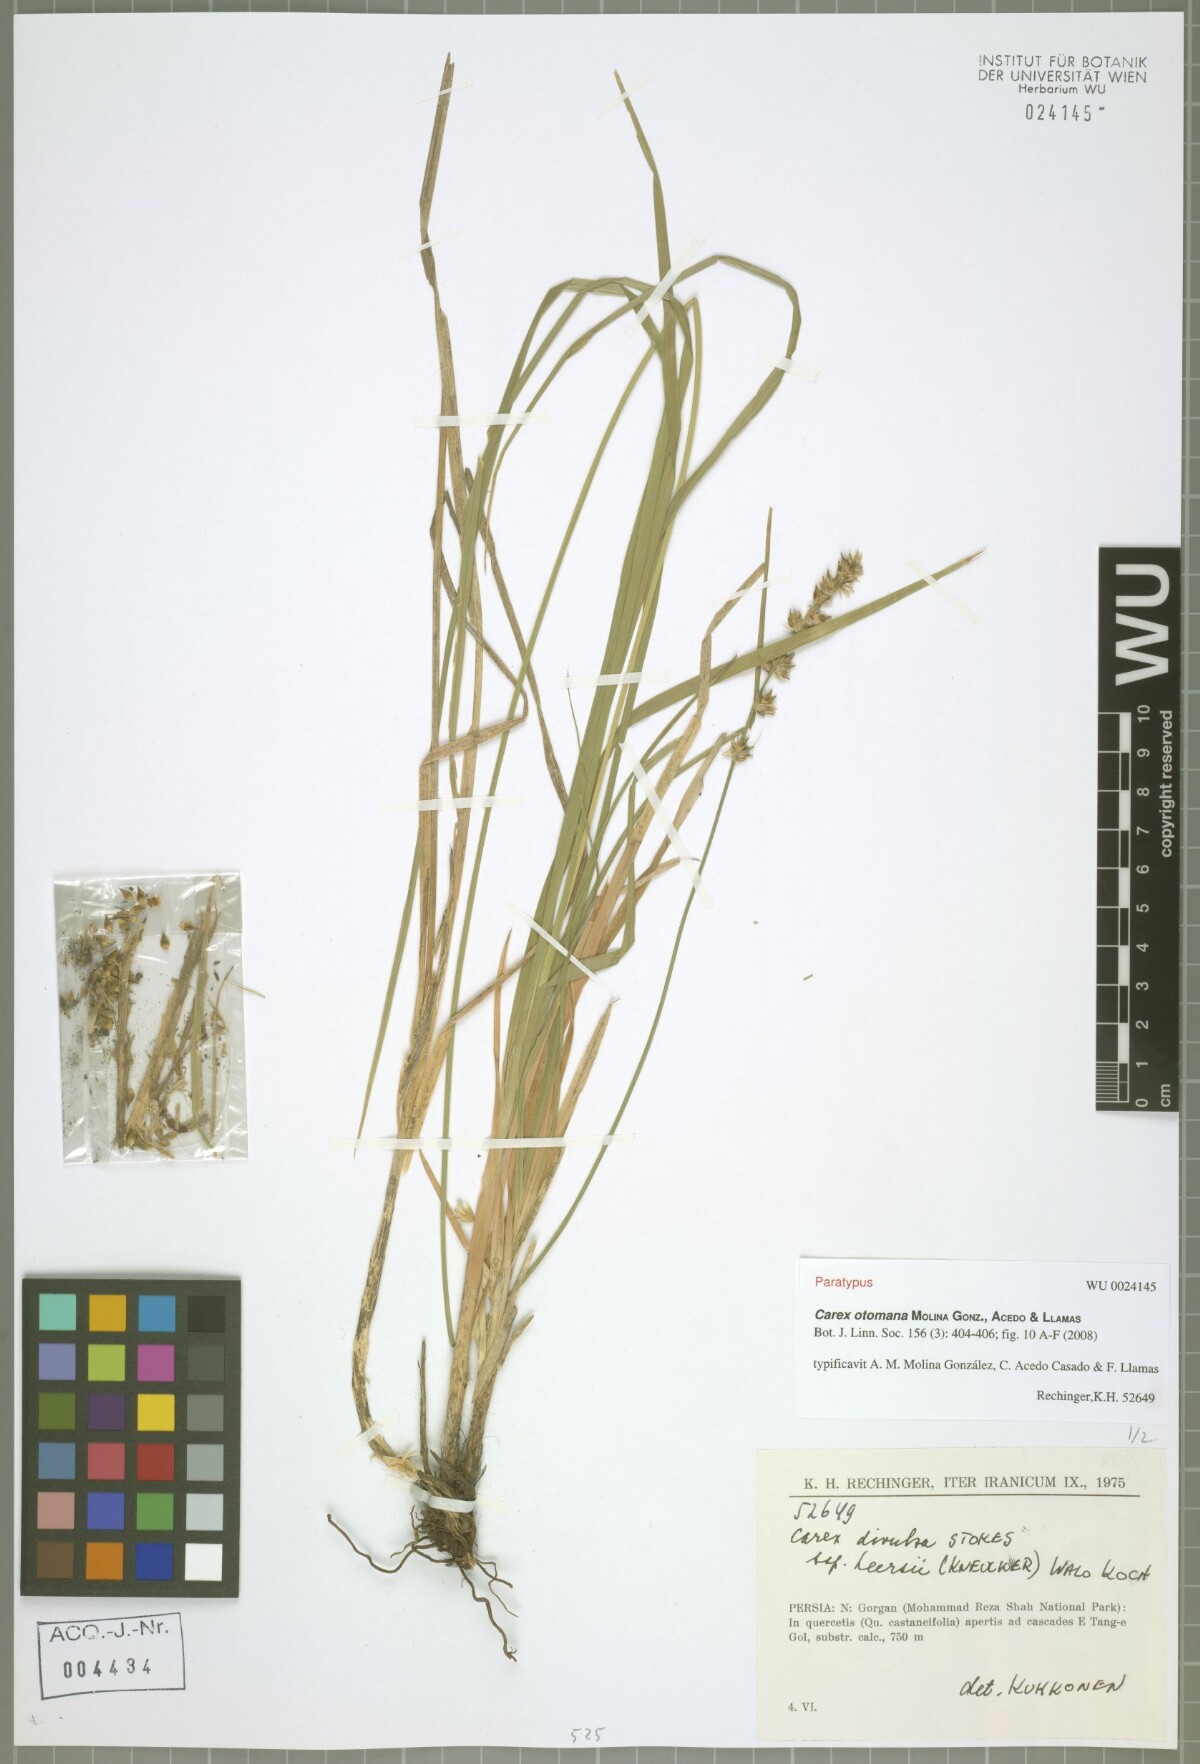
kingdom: Plantae
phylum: Tracheophyta
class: Liliopsida
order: Poales
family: Cyperaceae
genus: Carex
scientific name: Carex otomana
